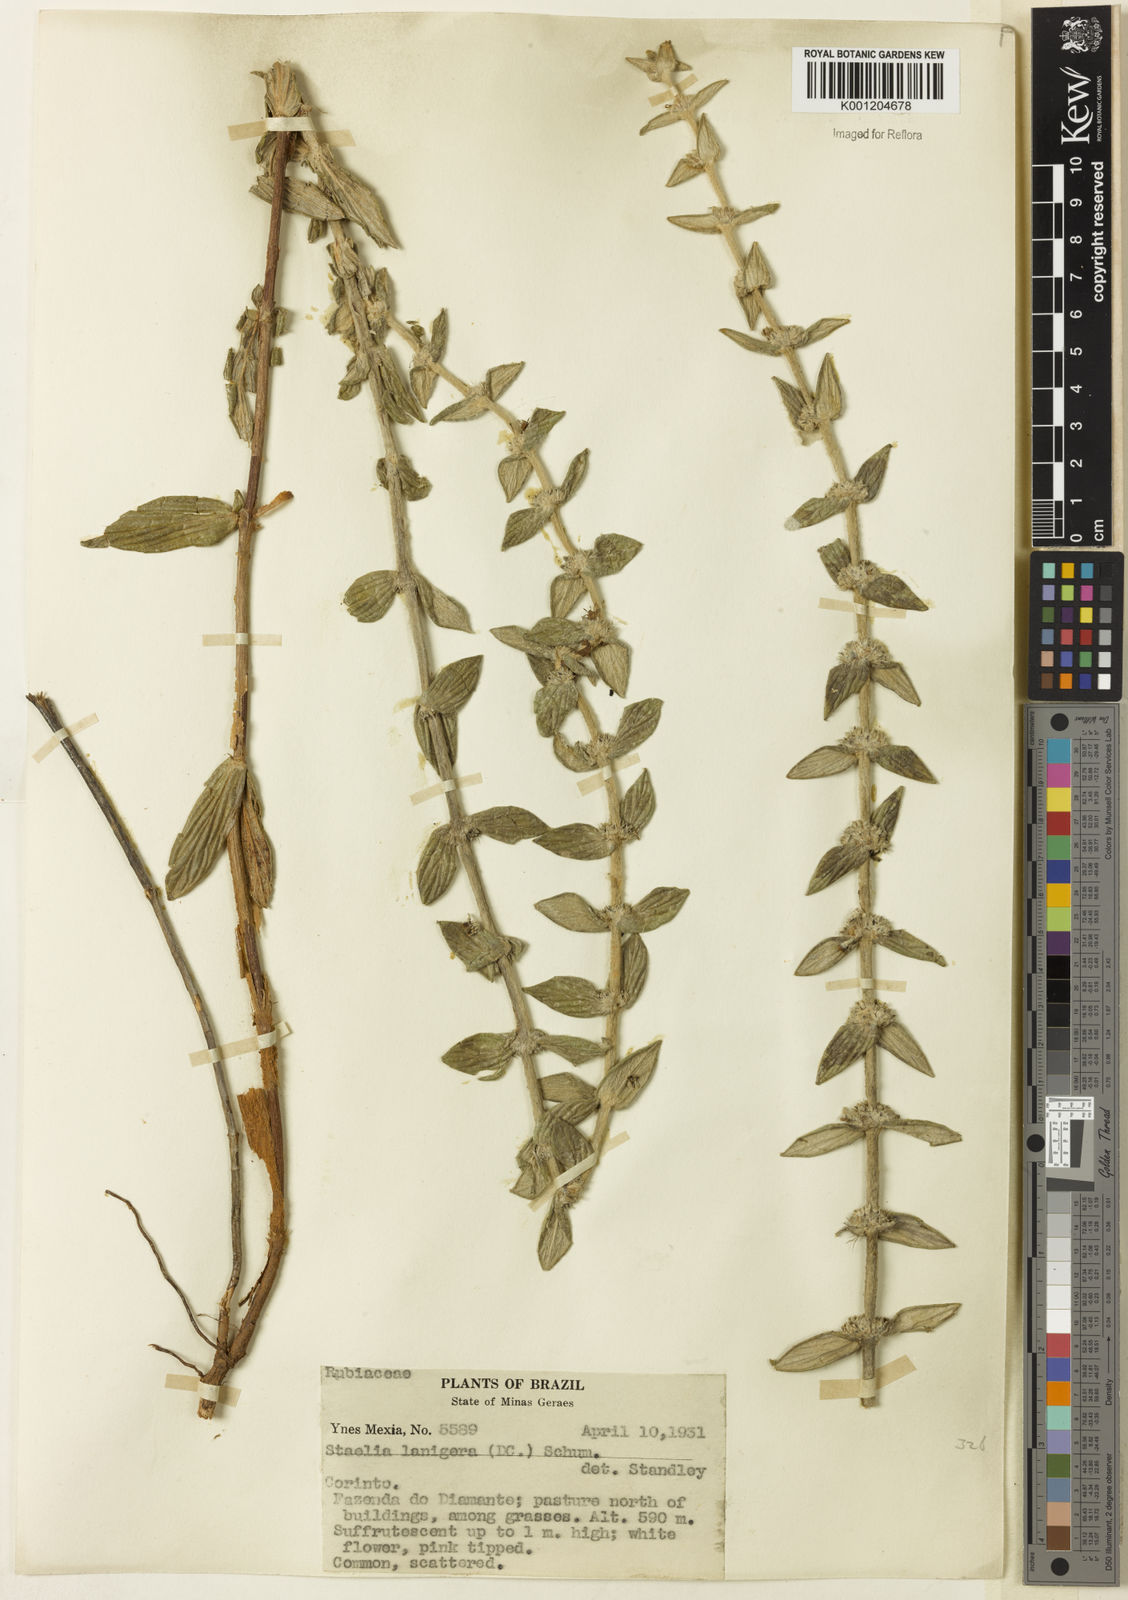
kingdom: Plantae
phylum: Tracheophyta
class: Magnoliopsida
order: Gentianales
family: Rubiaceae
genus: Planaltina
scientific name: Planaltina capitata
